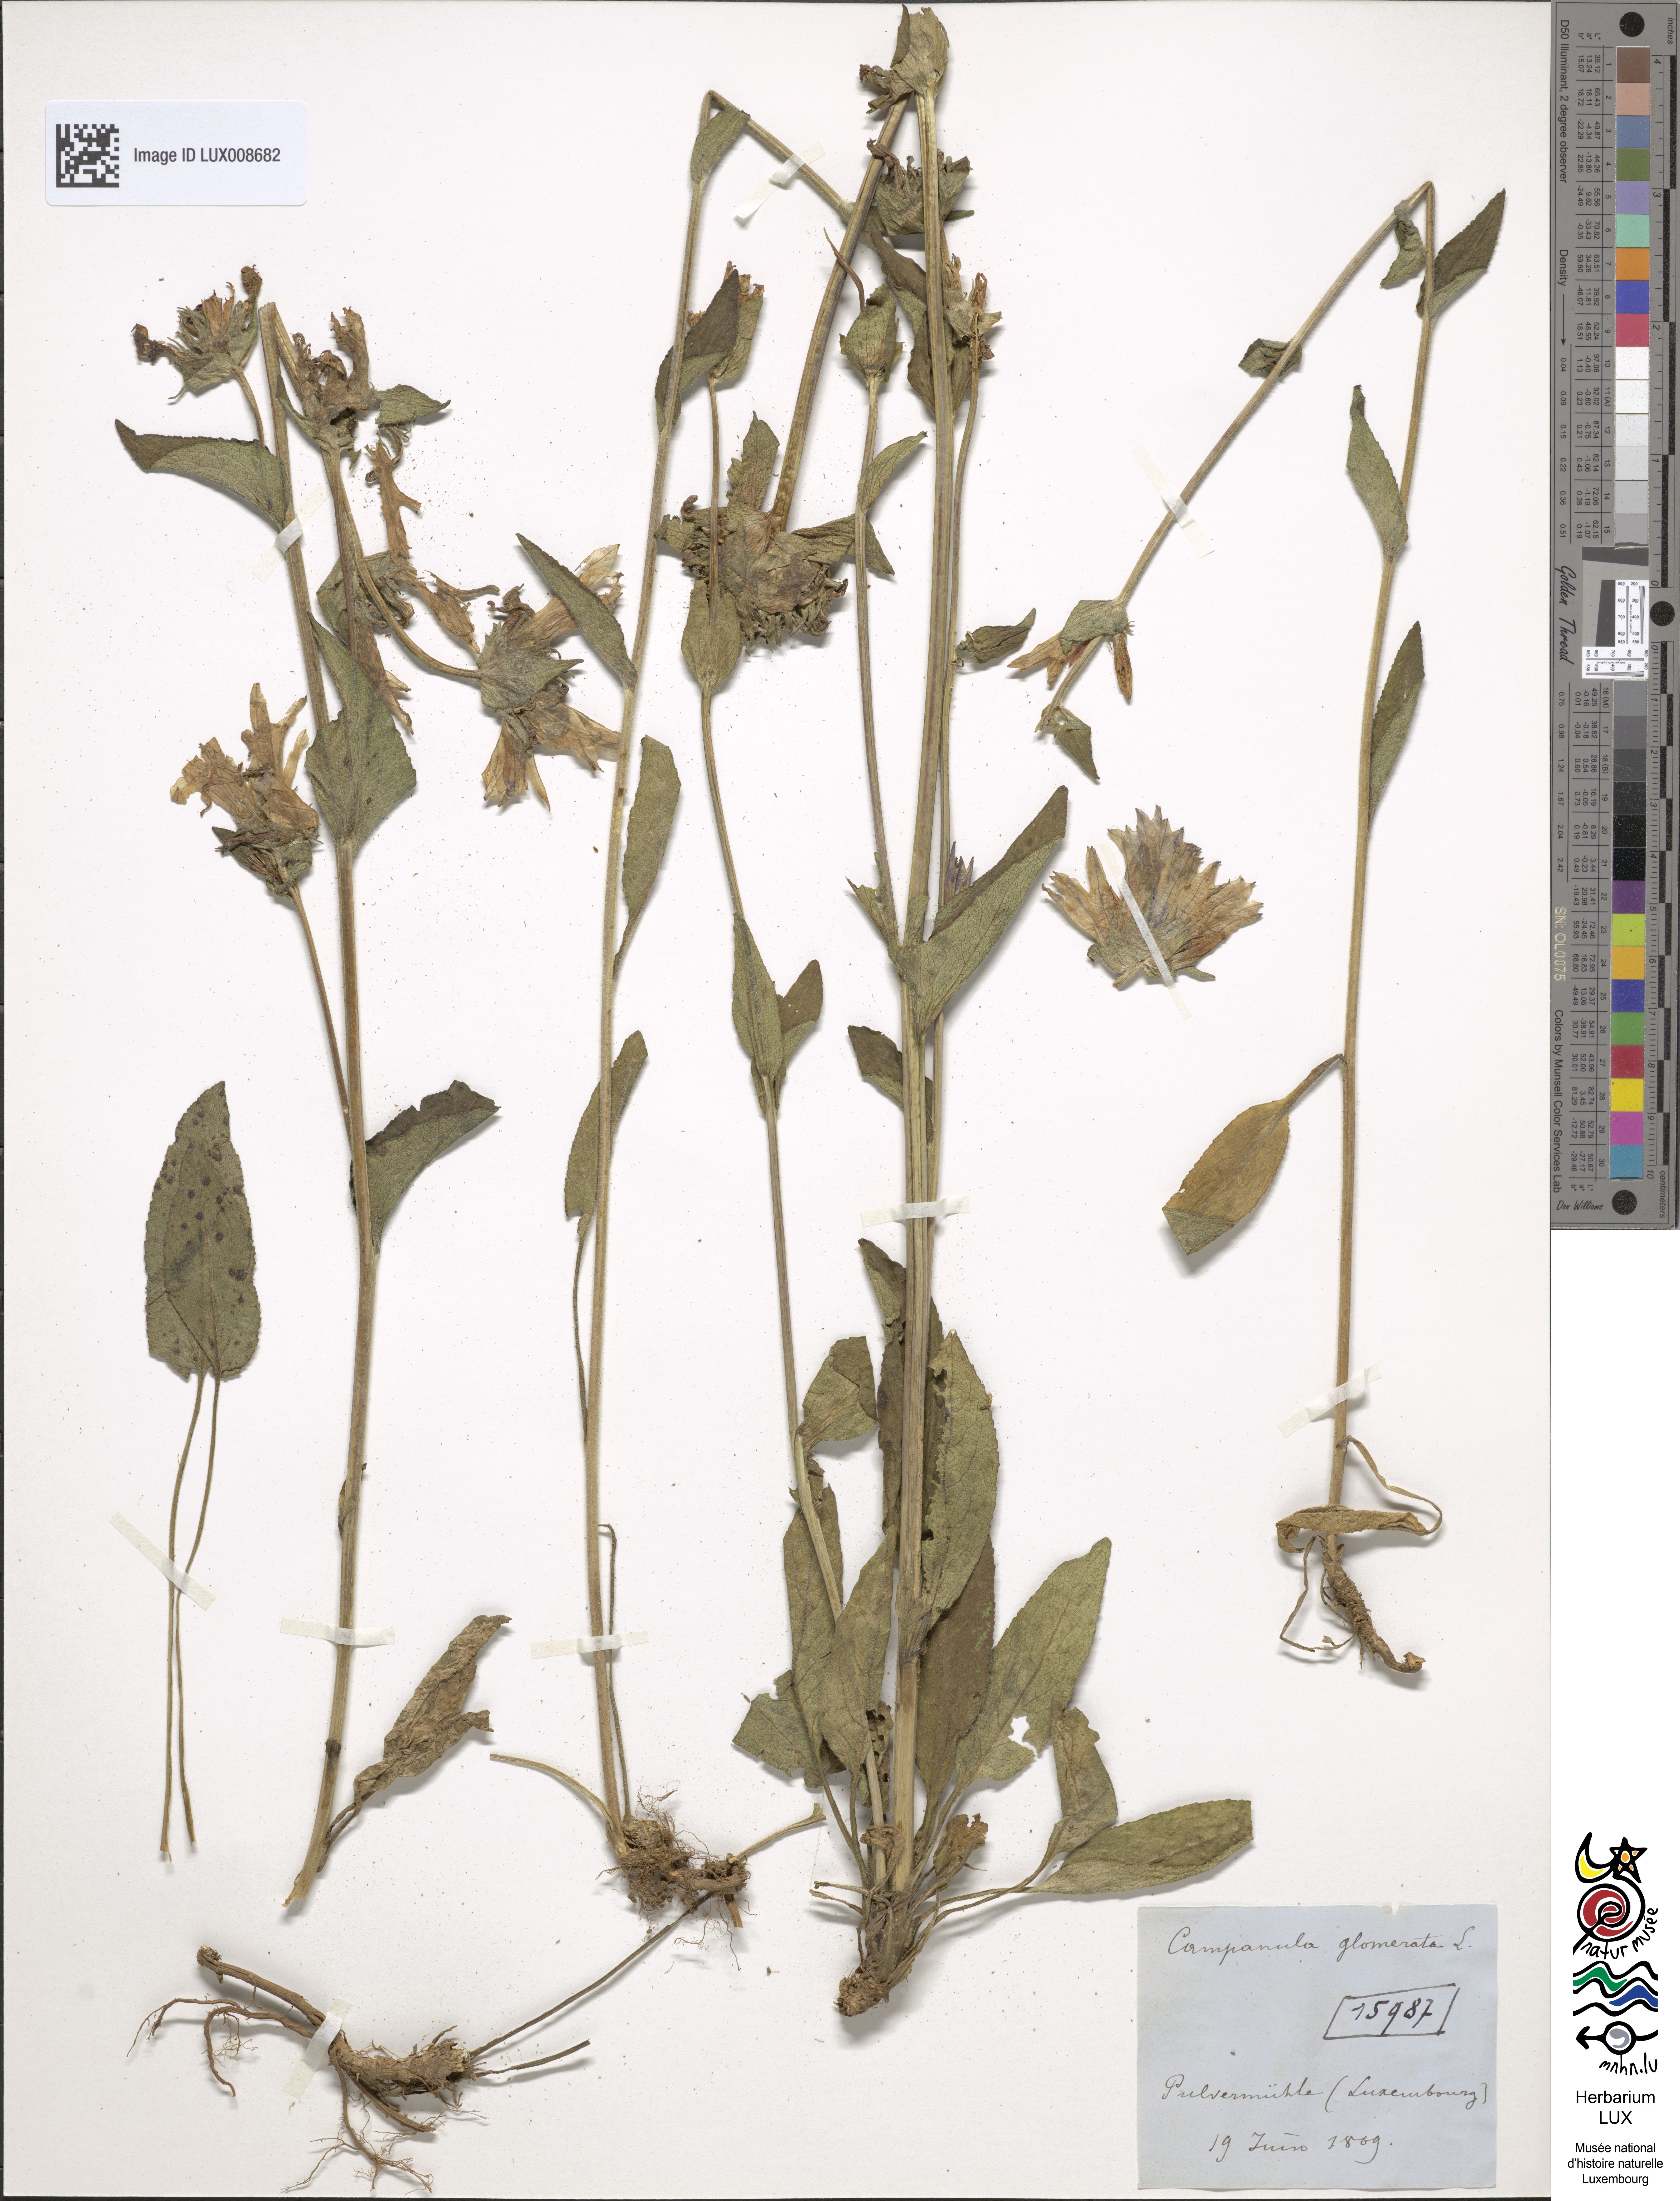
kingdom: Plantae
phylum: Tracheophyta
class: Magnoliopsida
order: Asterales
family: Campanulaceae
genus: Campanula
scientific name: Campanula glomerata
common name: Clustered bellflower
